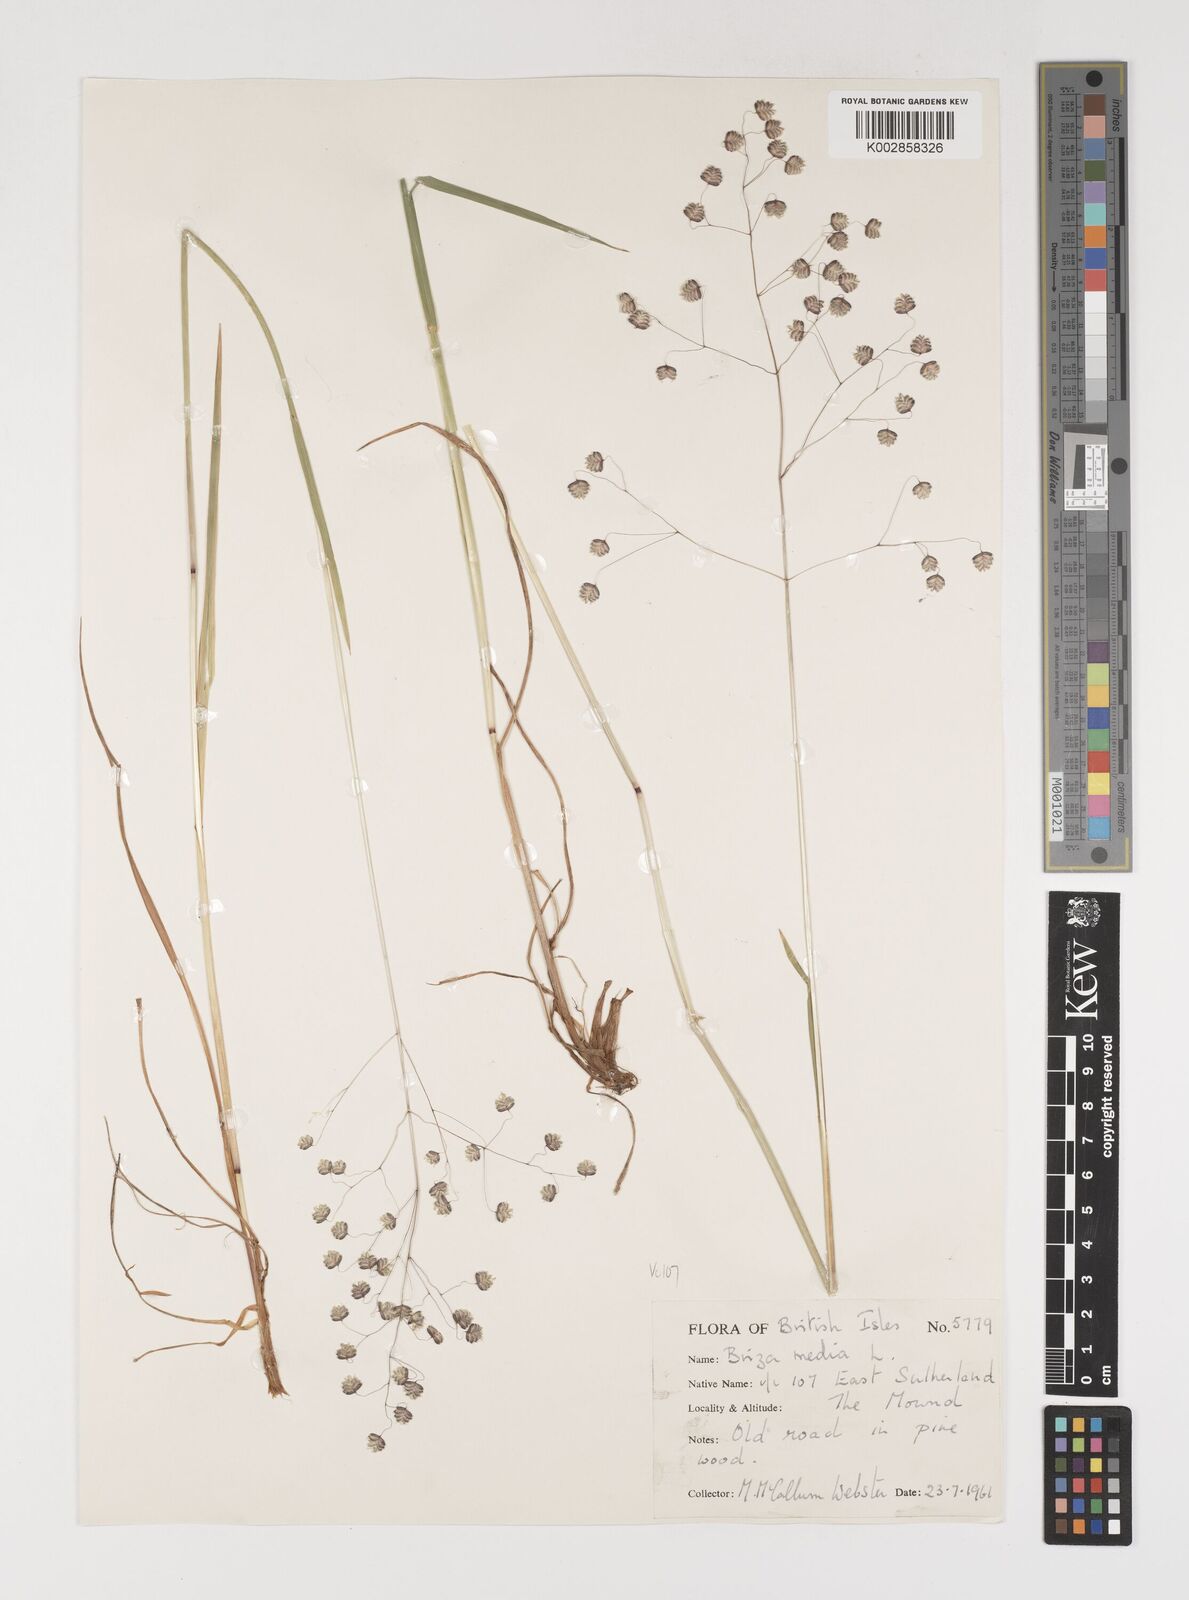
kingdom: Plantae
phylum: Tracheophyta
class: Liliopsida
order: Poales
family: Poaceae
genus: Briza
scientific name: Briza media
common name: Quaking grass
